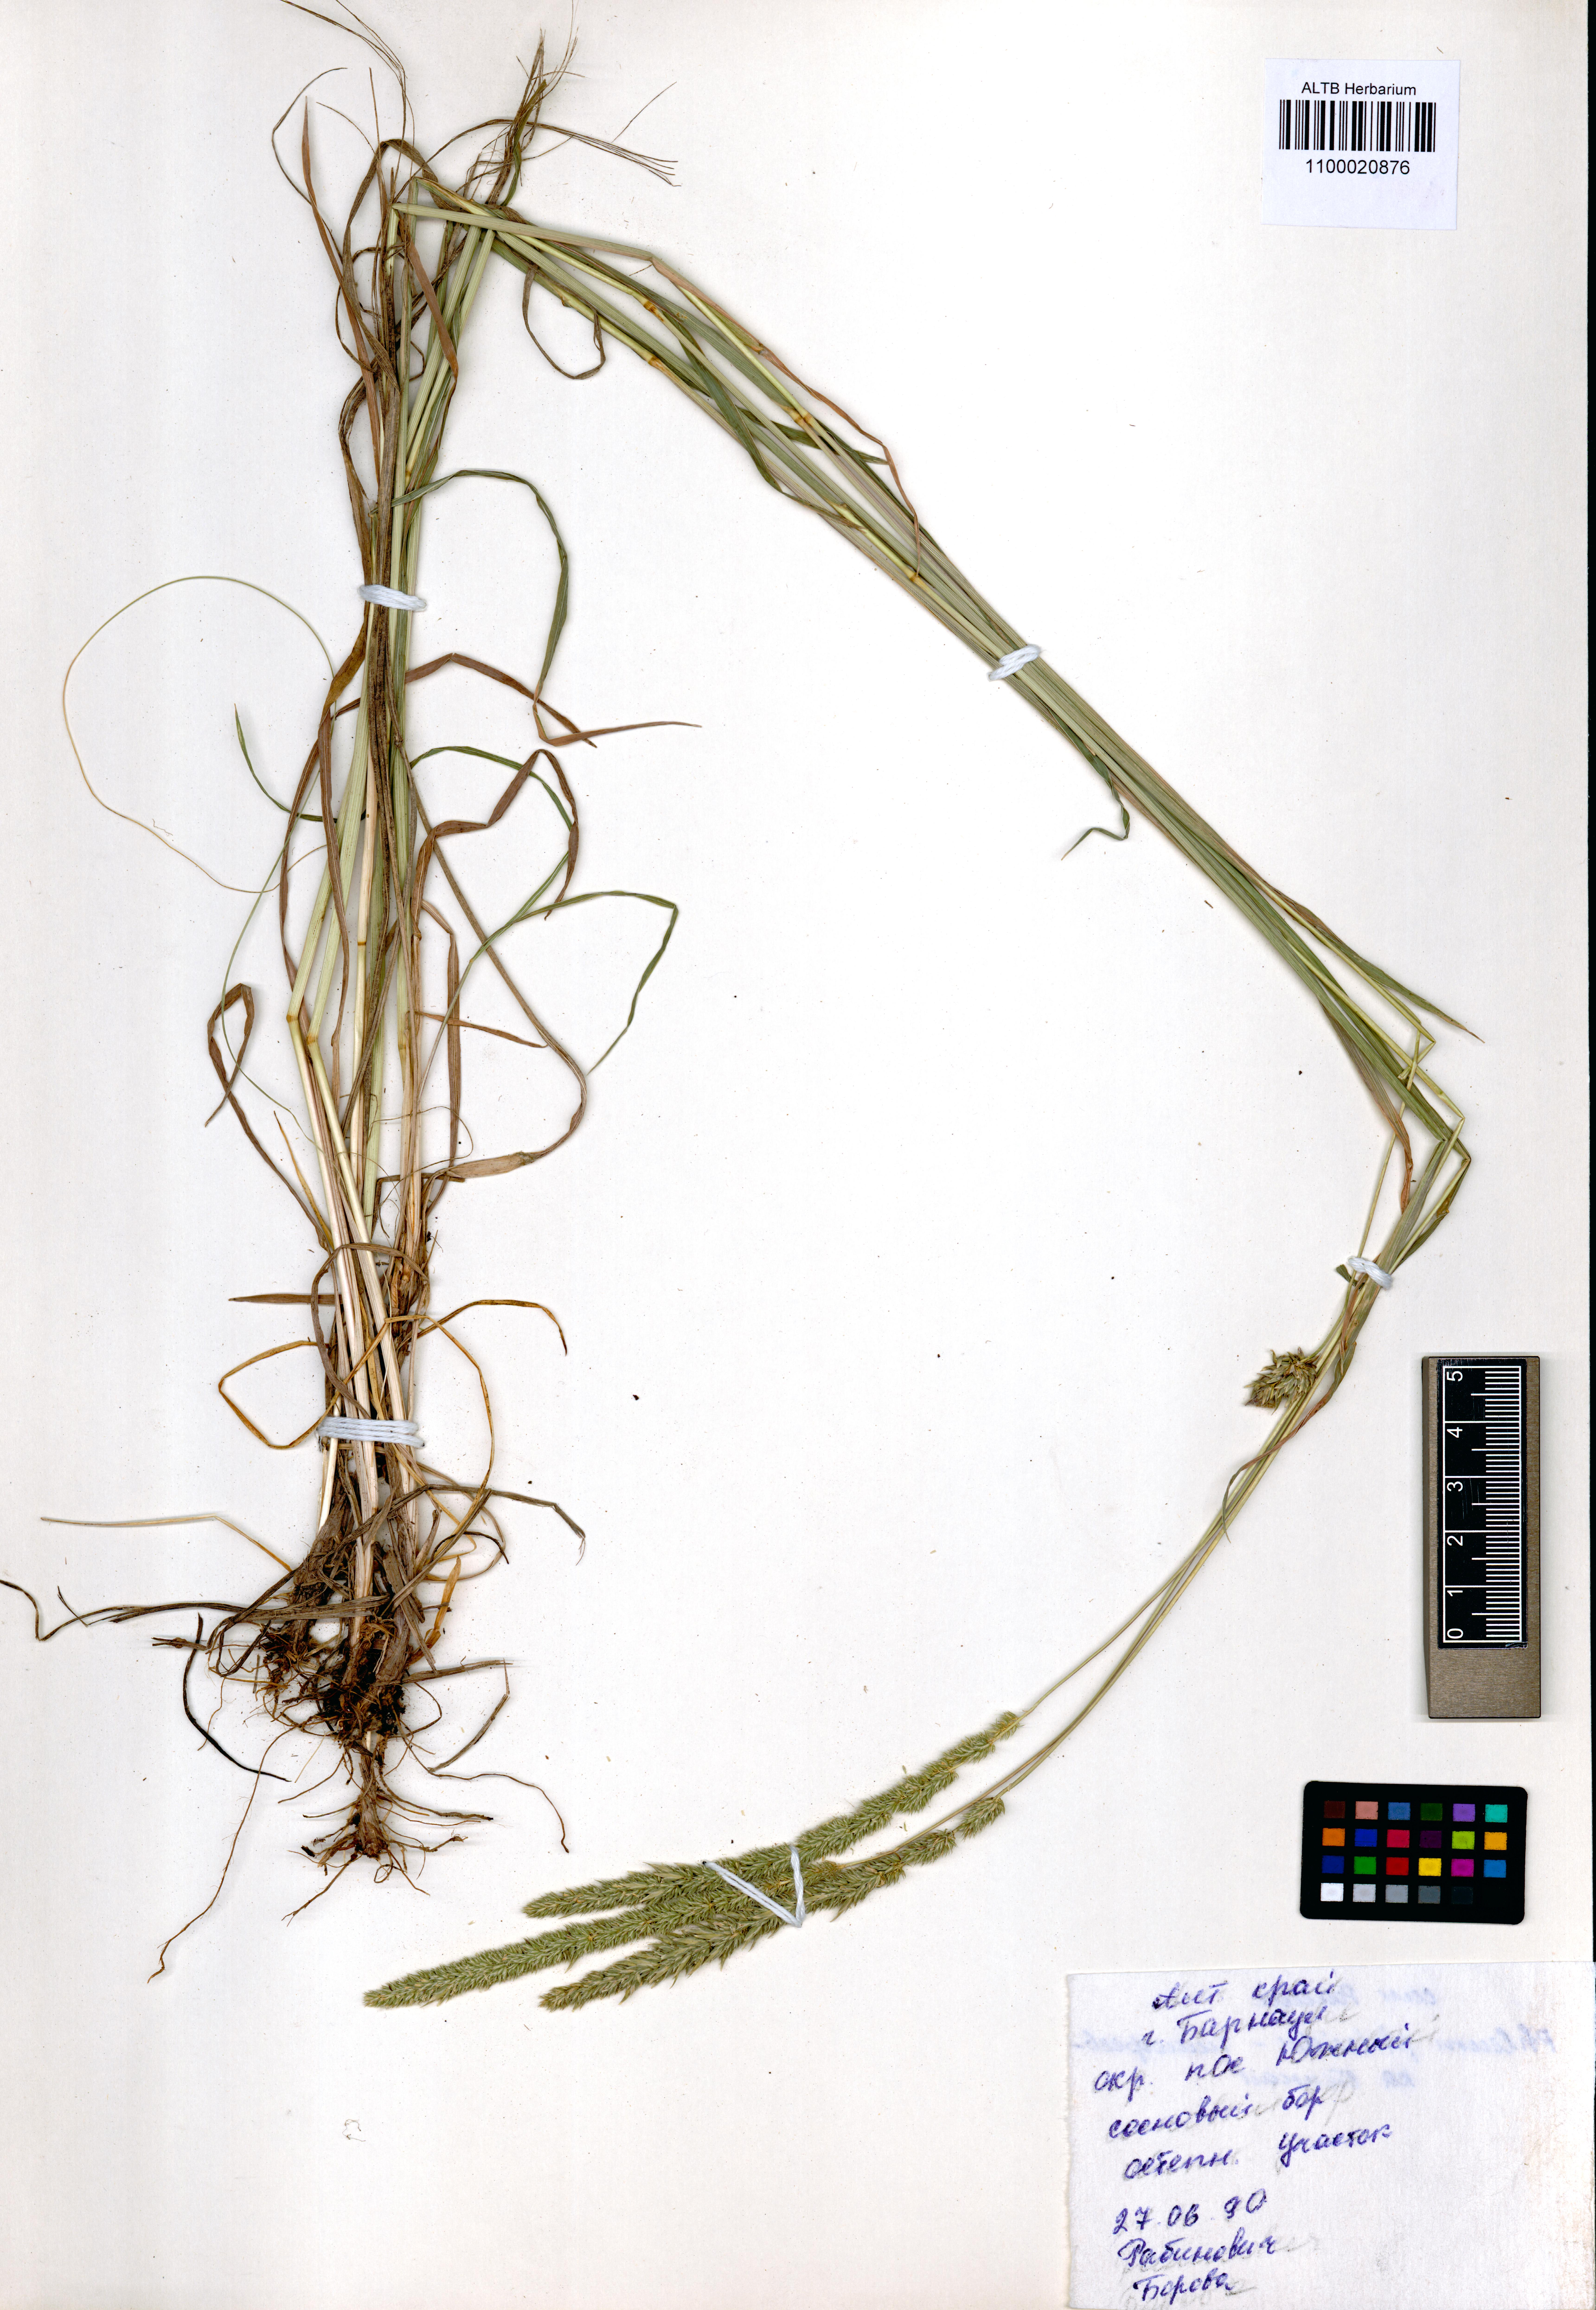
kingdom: Plantae
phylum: Tracheophyta
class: Liliopsida
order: Poales
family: Poaceae
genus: Phleum
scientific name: Phleum phleoides
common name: Purple-stem cat's-tail
